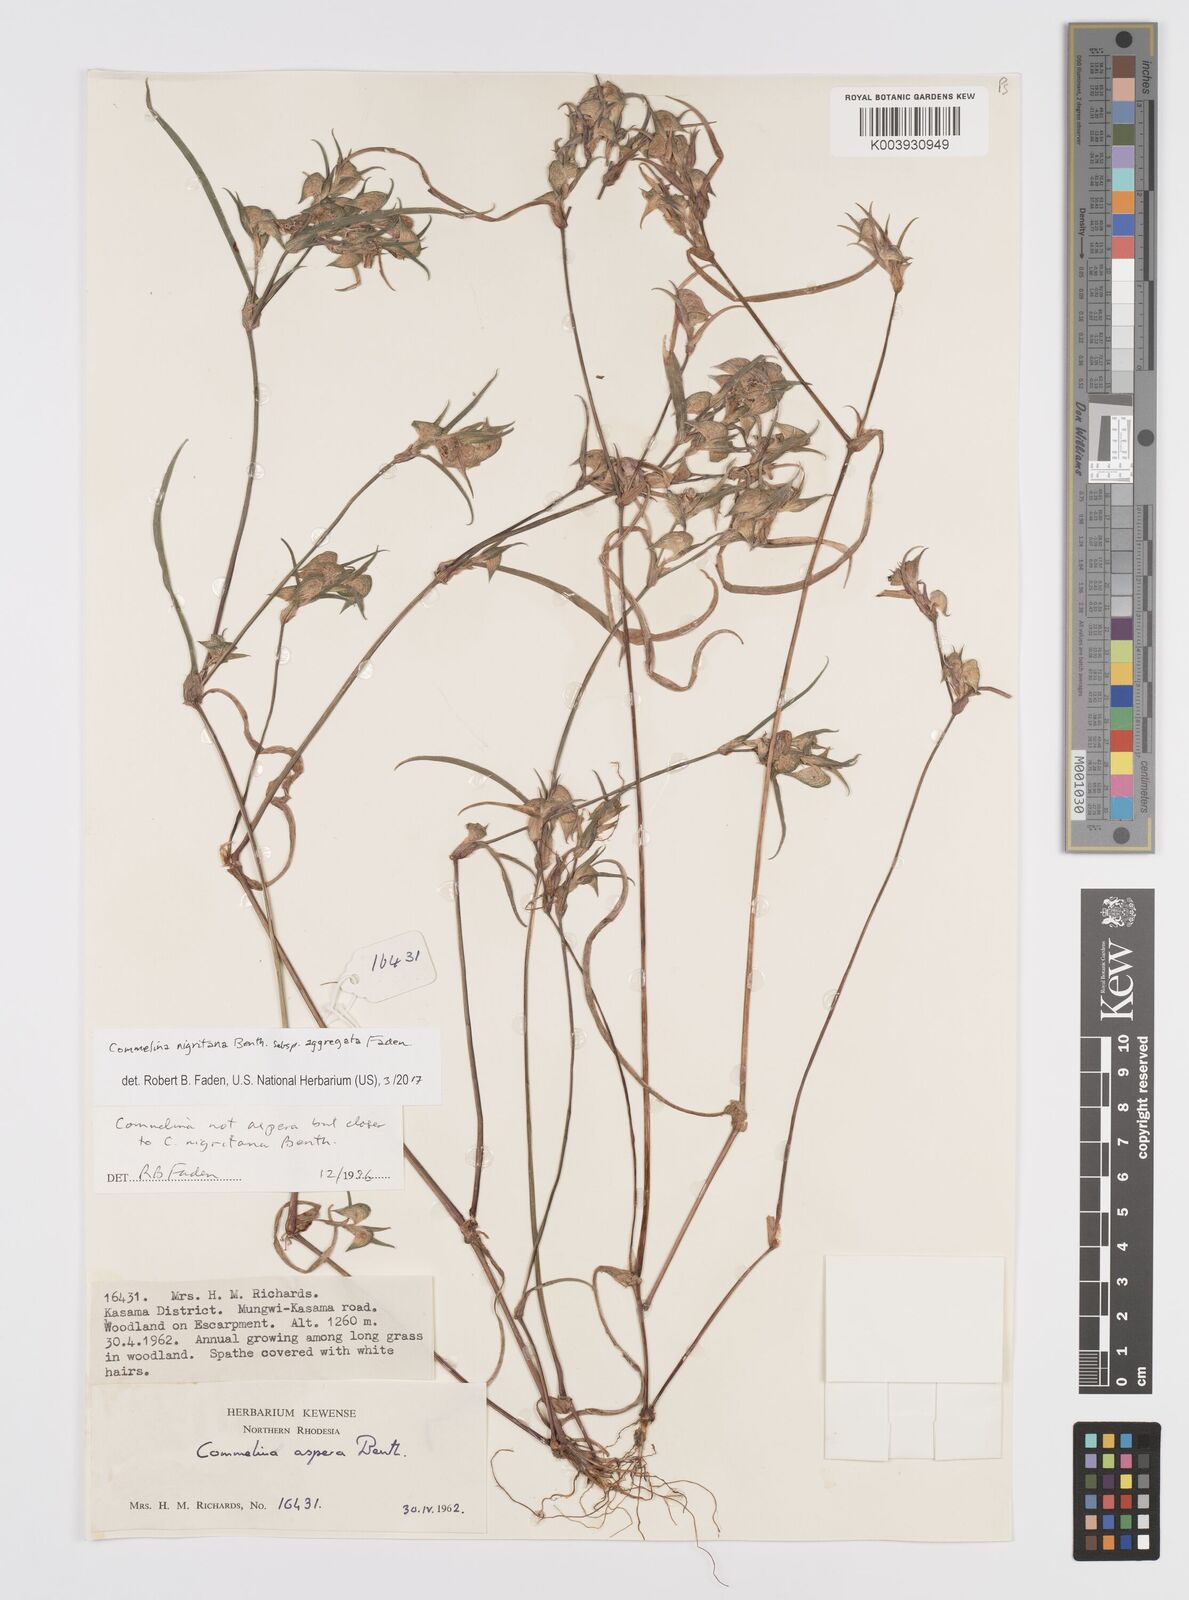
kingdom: Plantae
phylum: Tracheophyta
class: Liliopsida
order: Commelinales
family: Commelinaceae
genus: Commelina
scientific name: Commelina nigritana
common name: African dayflower
